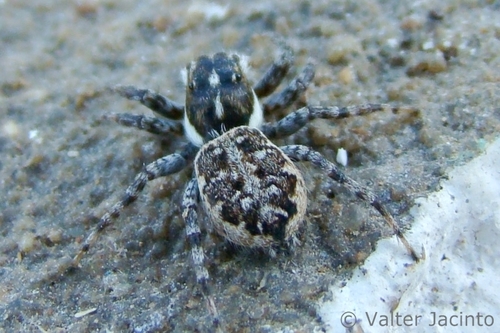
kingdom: Animalia
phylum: Arthropoda
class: Arachnida
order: Araneae
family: Salticidae
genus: Menemerus
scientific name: Menemerus semilimbatus
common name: Jumping spider
